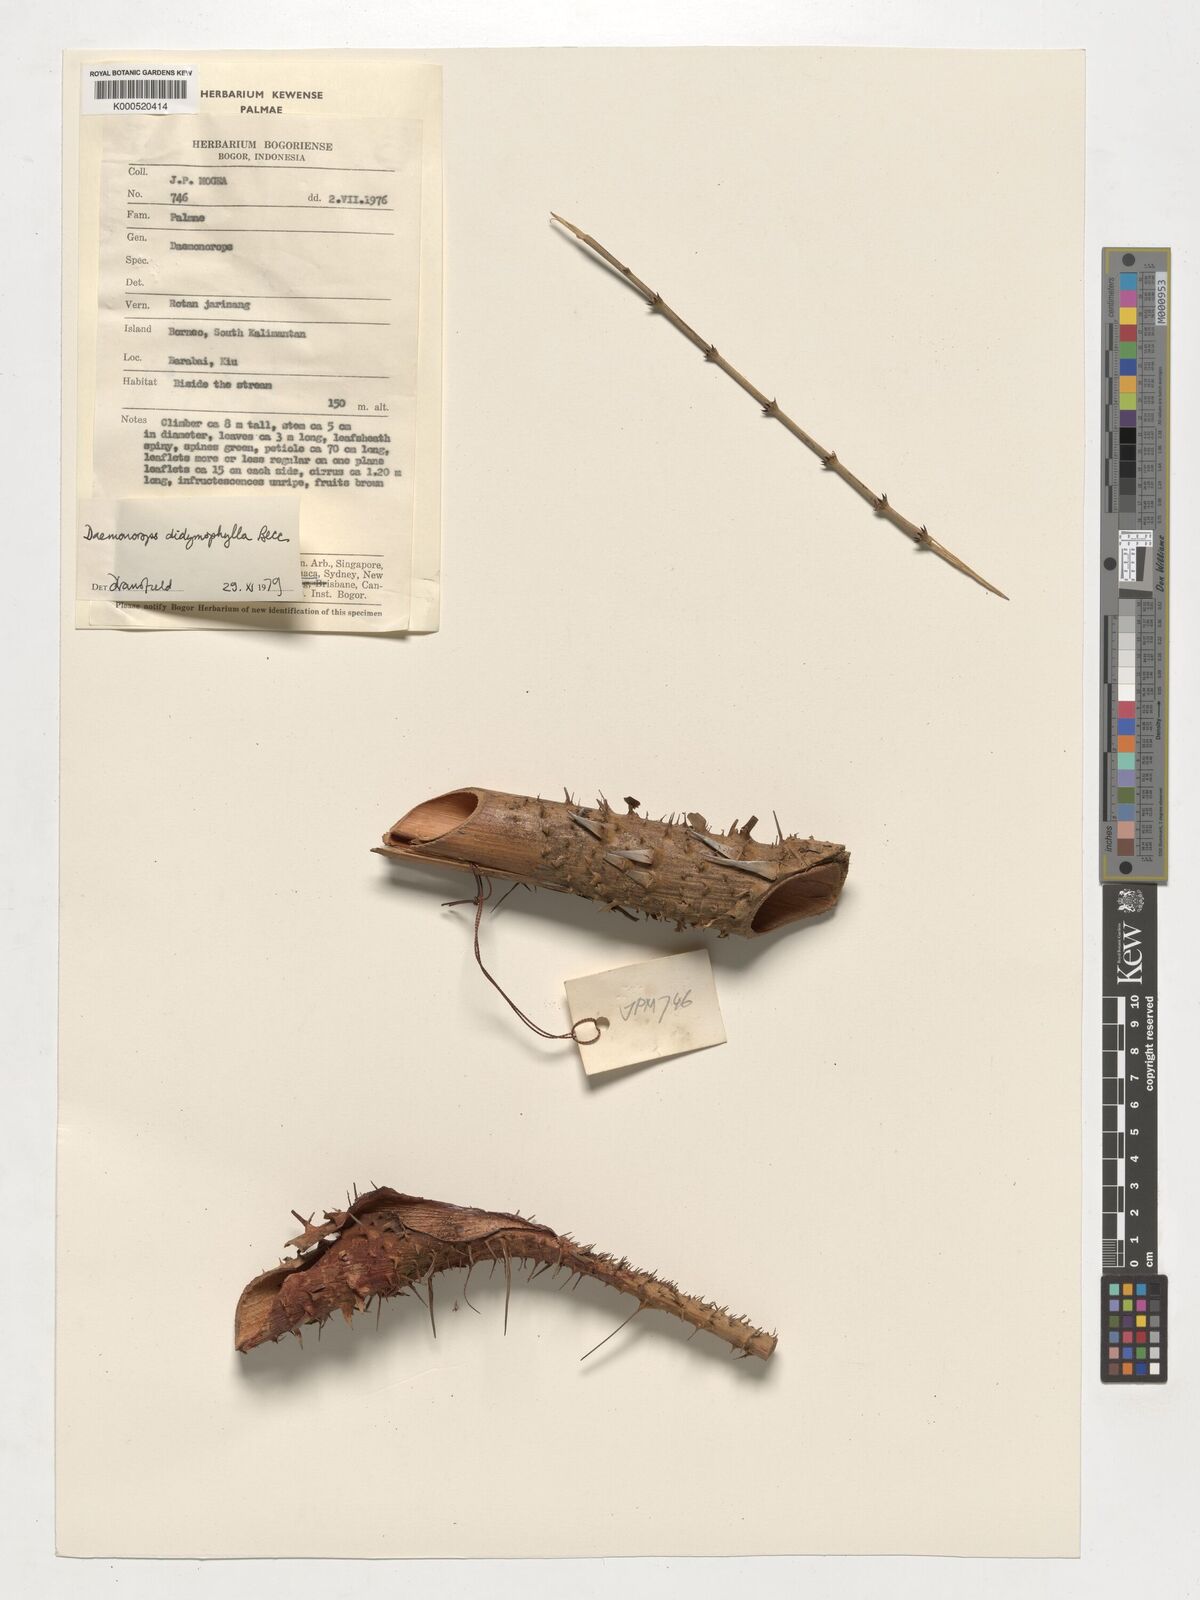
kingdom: Plantae
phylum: Tracheophyta
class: Liliopsida
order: Arecales
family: Arecaceae
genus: Calamus
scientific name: Calamus gracilipes
